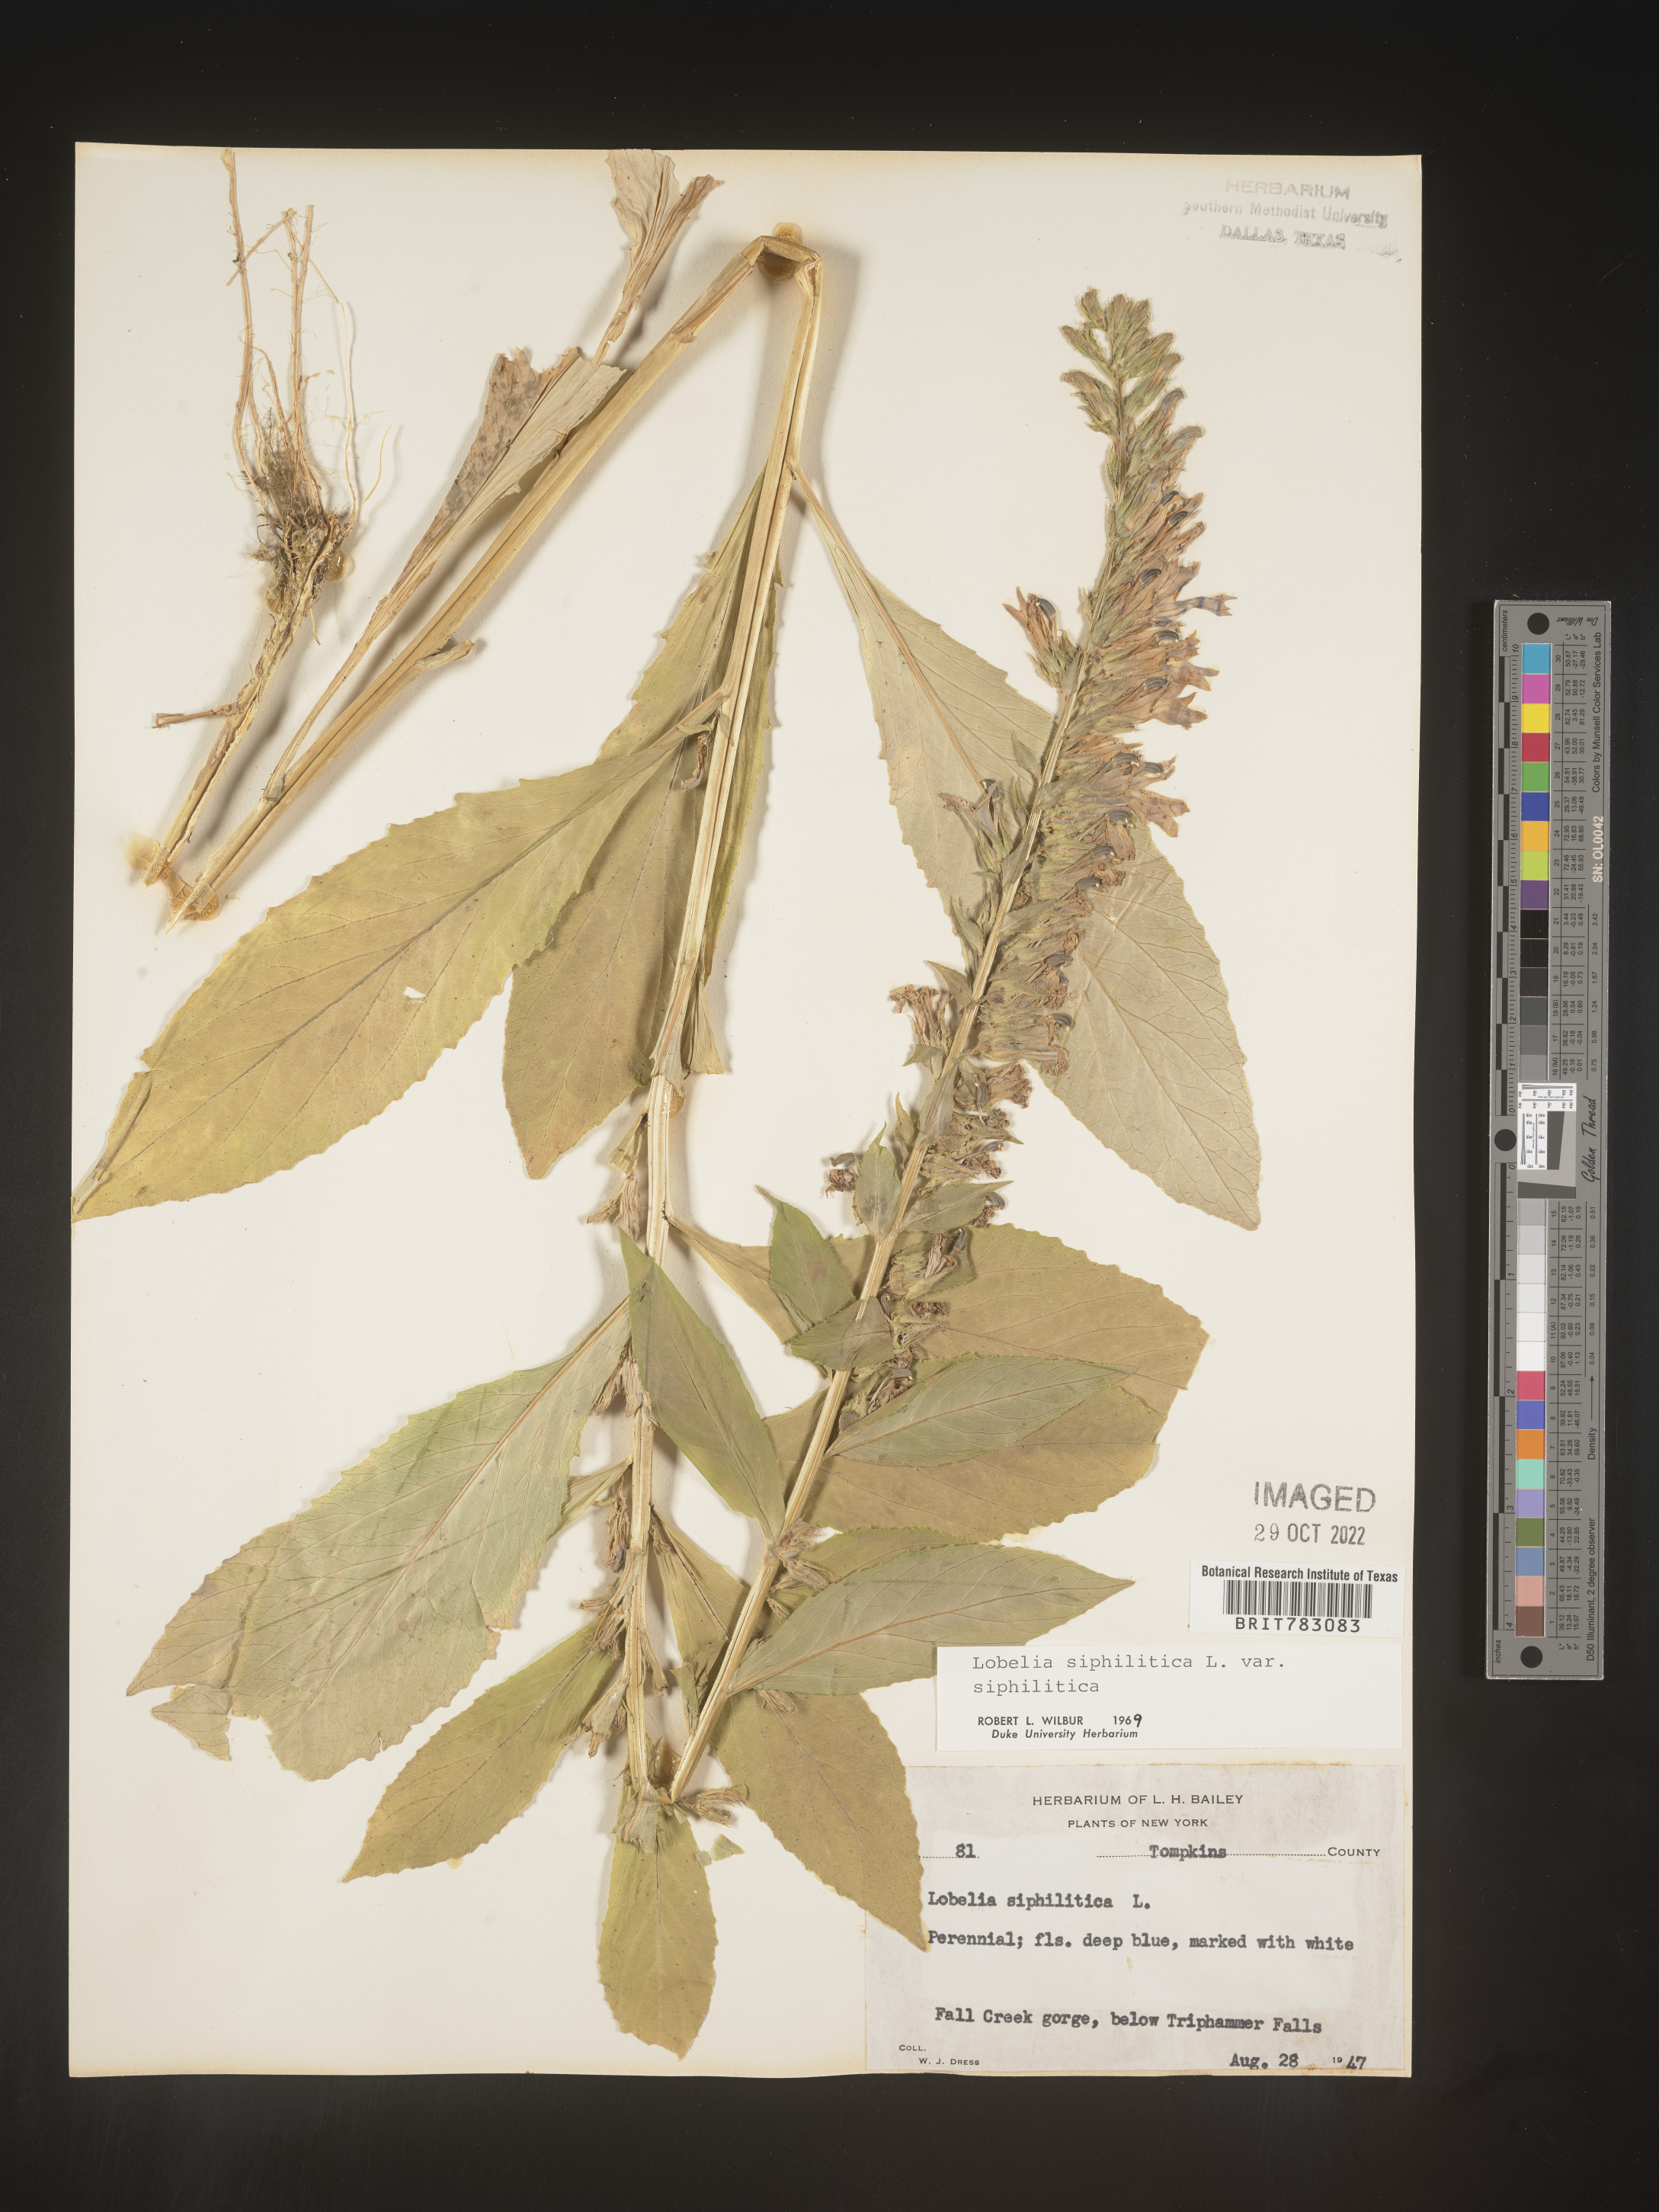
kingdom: Plantae
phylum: Tracheophyta
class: Magnoliopsida
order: Asterales
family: Campanulaceae
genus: Lobelia
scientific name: Lobelia siphilitica
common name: Great lobelia
